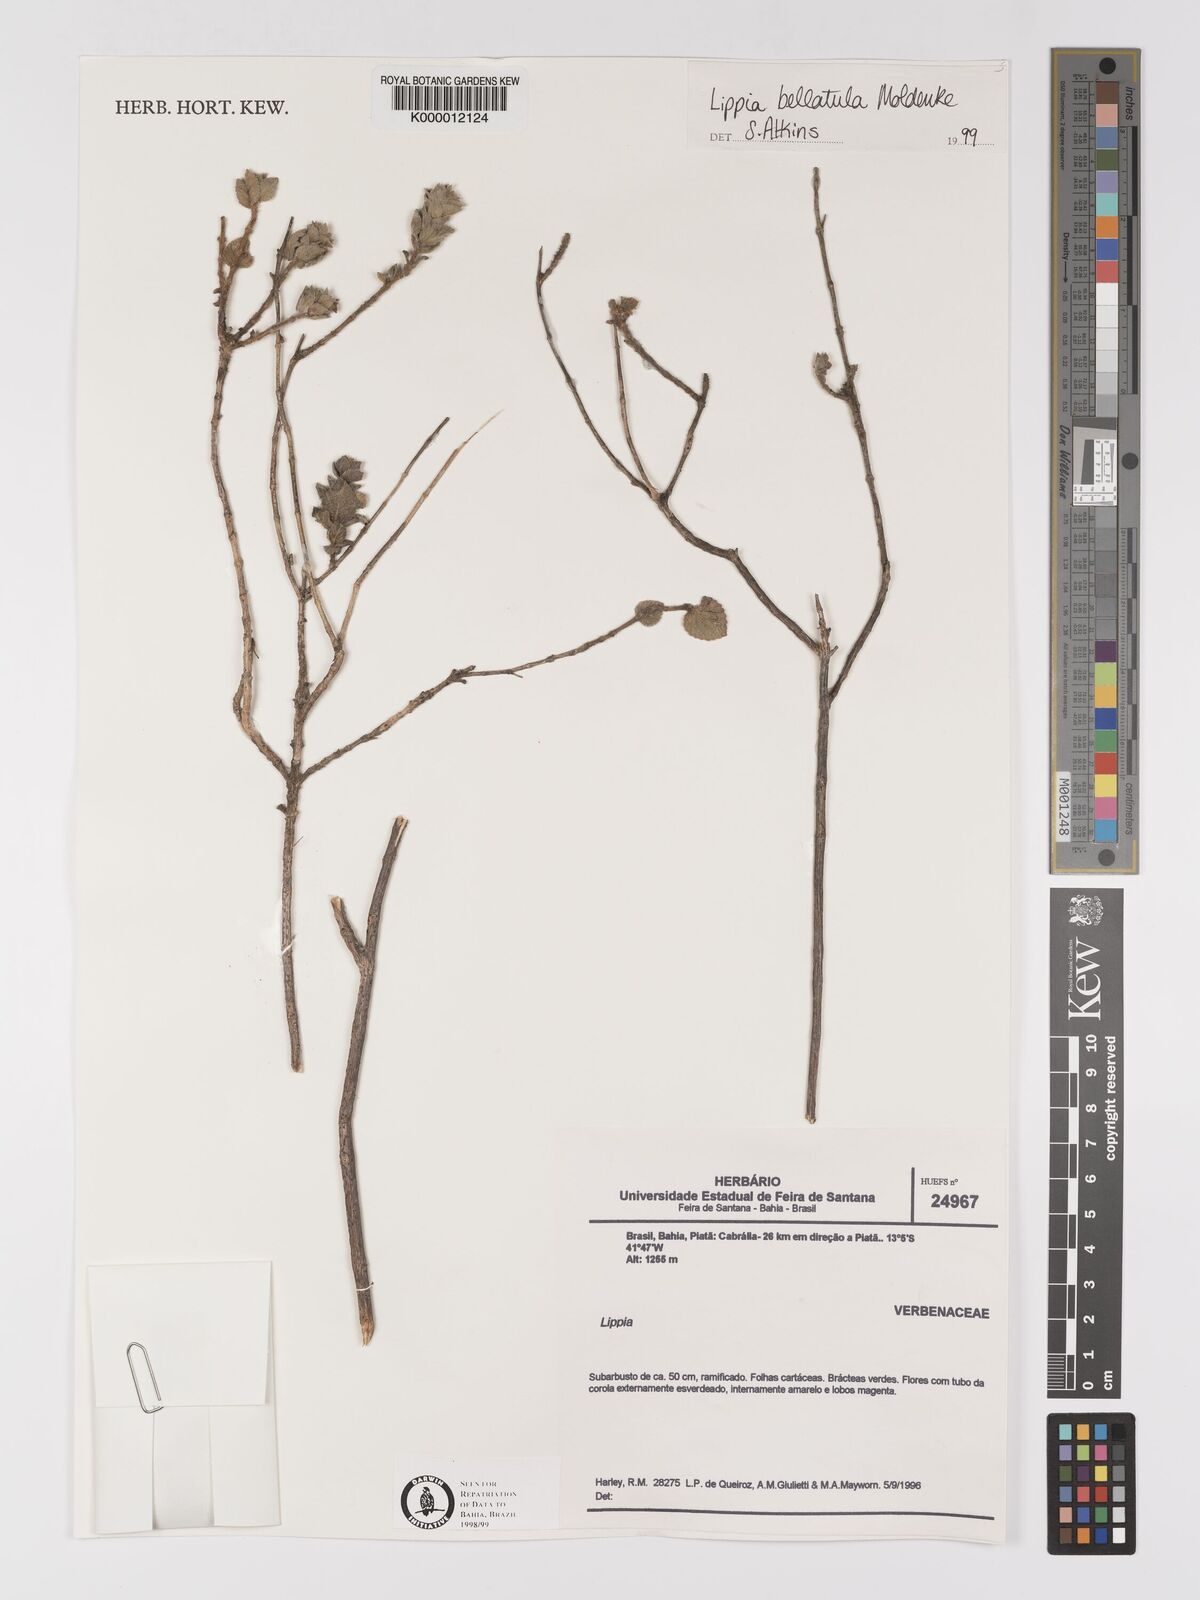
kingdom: Plantae
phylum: Tracheophyta
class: Magnoliopsida
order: Lamiales
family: Verbenaceae
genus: Lippia
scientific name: Lippia bellatula
